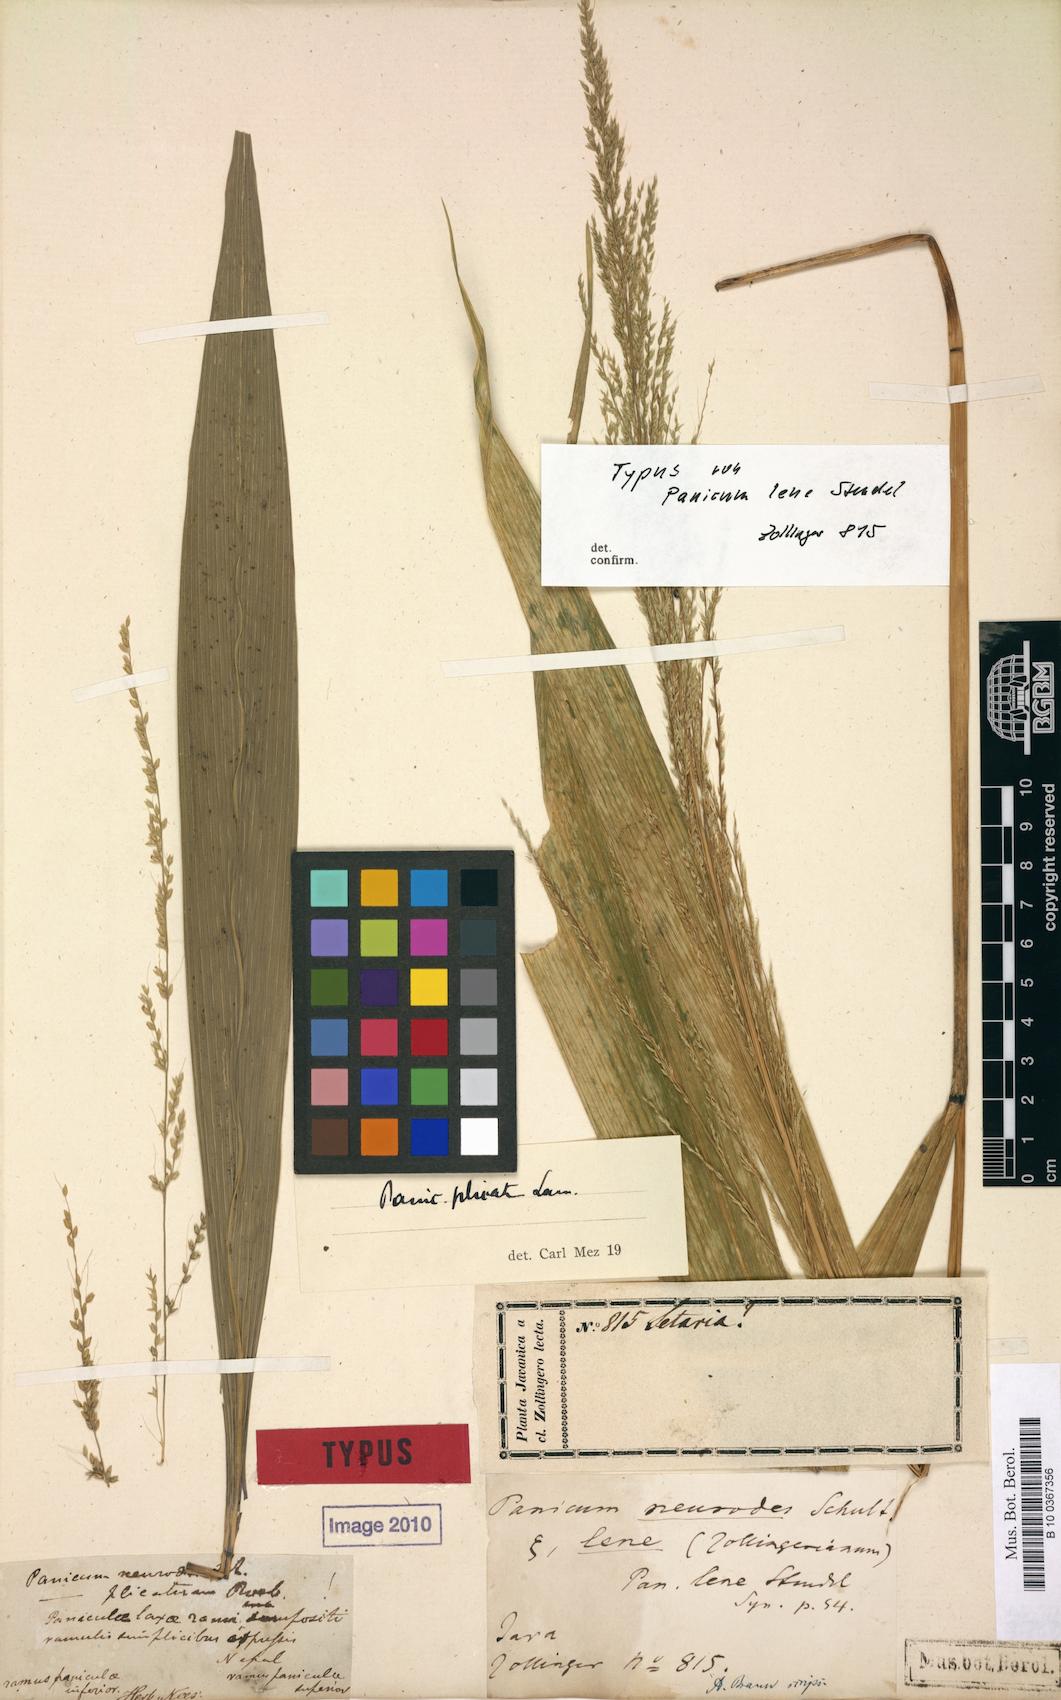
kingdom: Plantae
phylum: Tracheophyta
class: Liliopsida
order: Poales
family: Poaceae
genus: Setaria
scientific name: Setaria palmifolia
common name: Broadleaved bristlegrass
